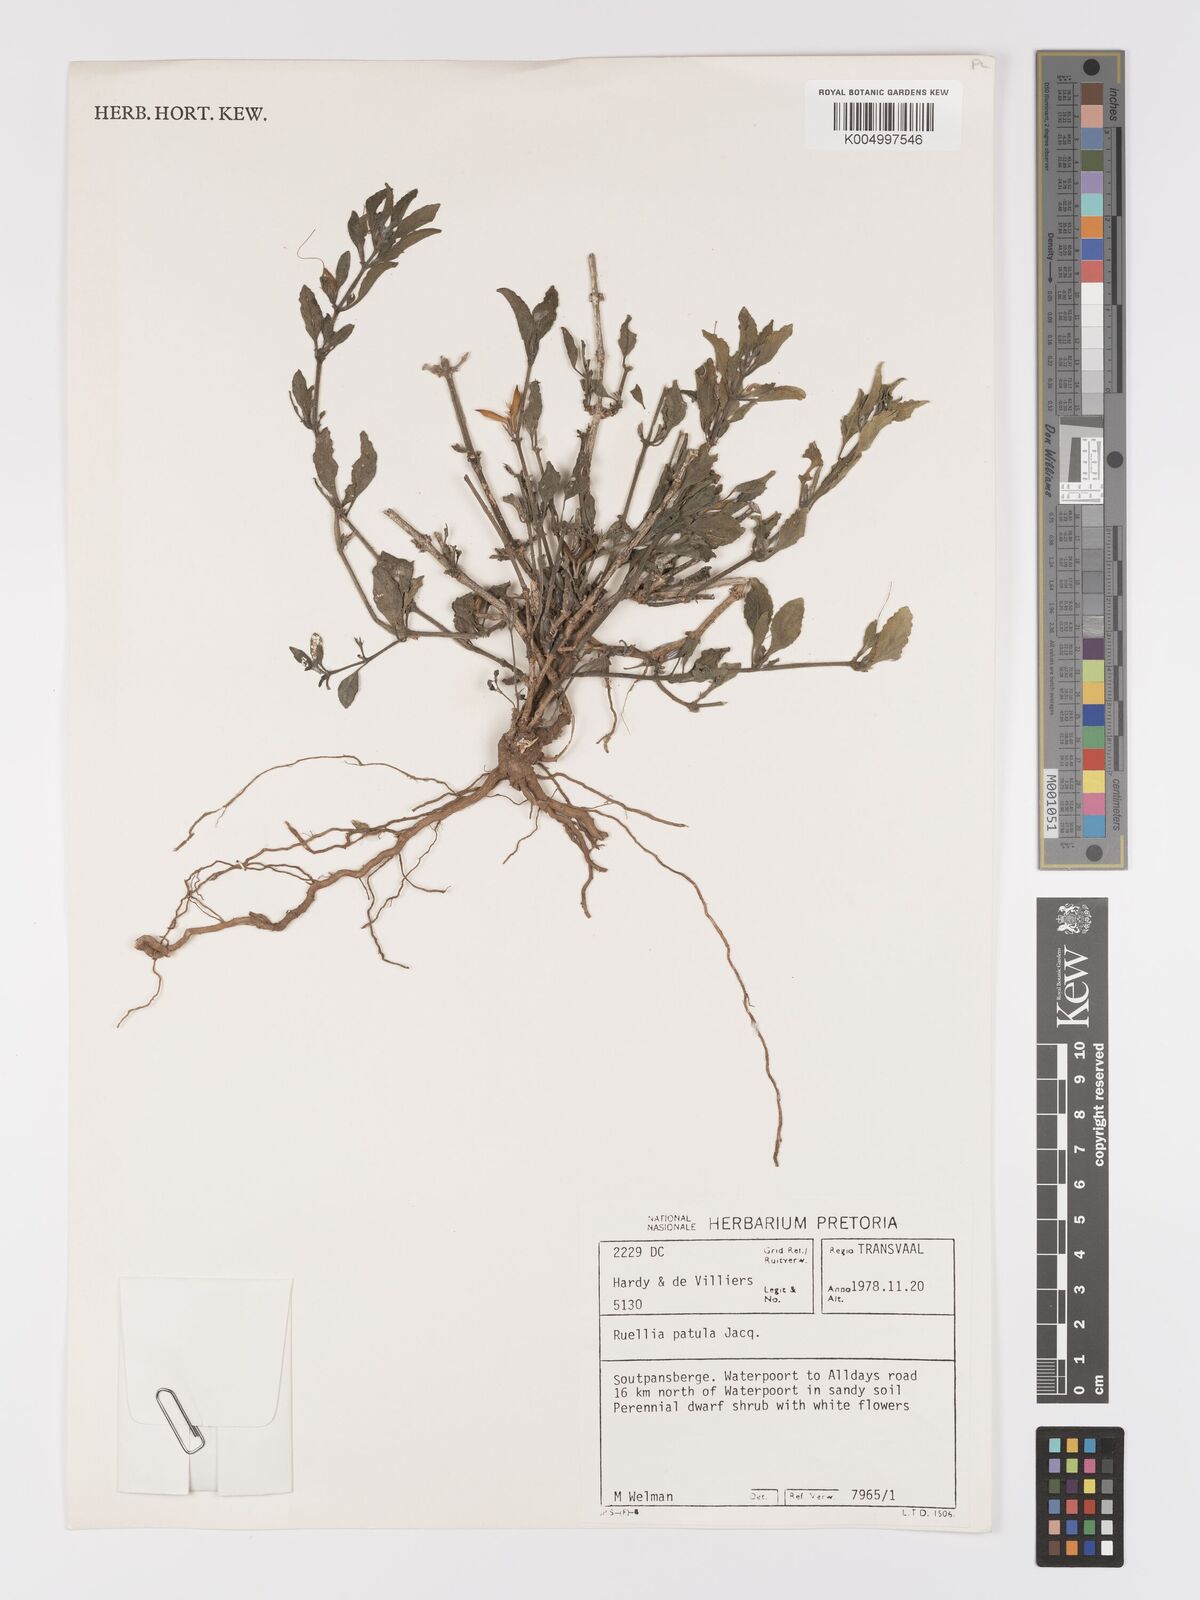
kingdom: Plantae
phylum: Tracheophyta
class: Magnoliopsida
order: Lamiales
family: Acanthaceae
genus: Ruellia
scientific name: Ruellia patula
